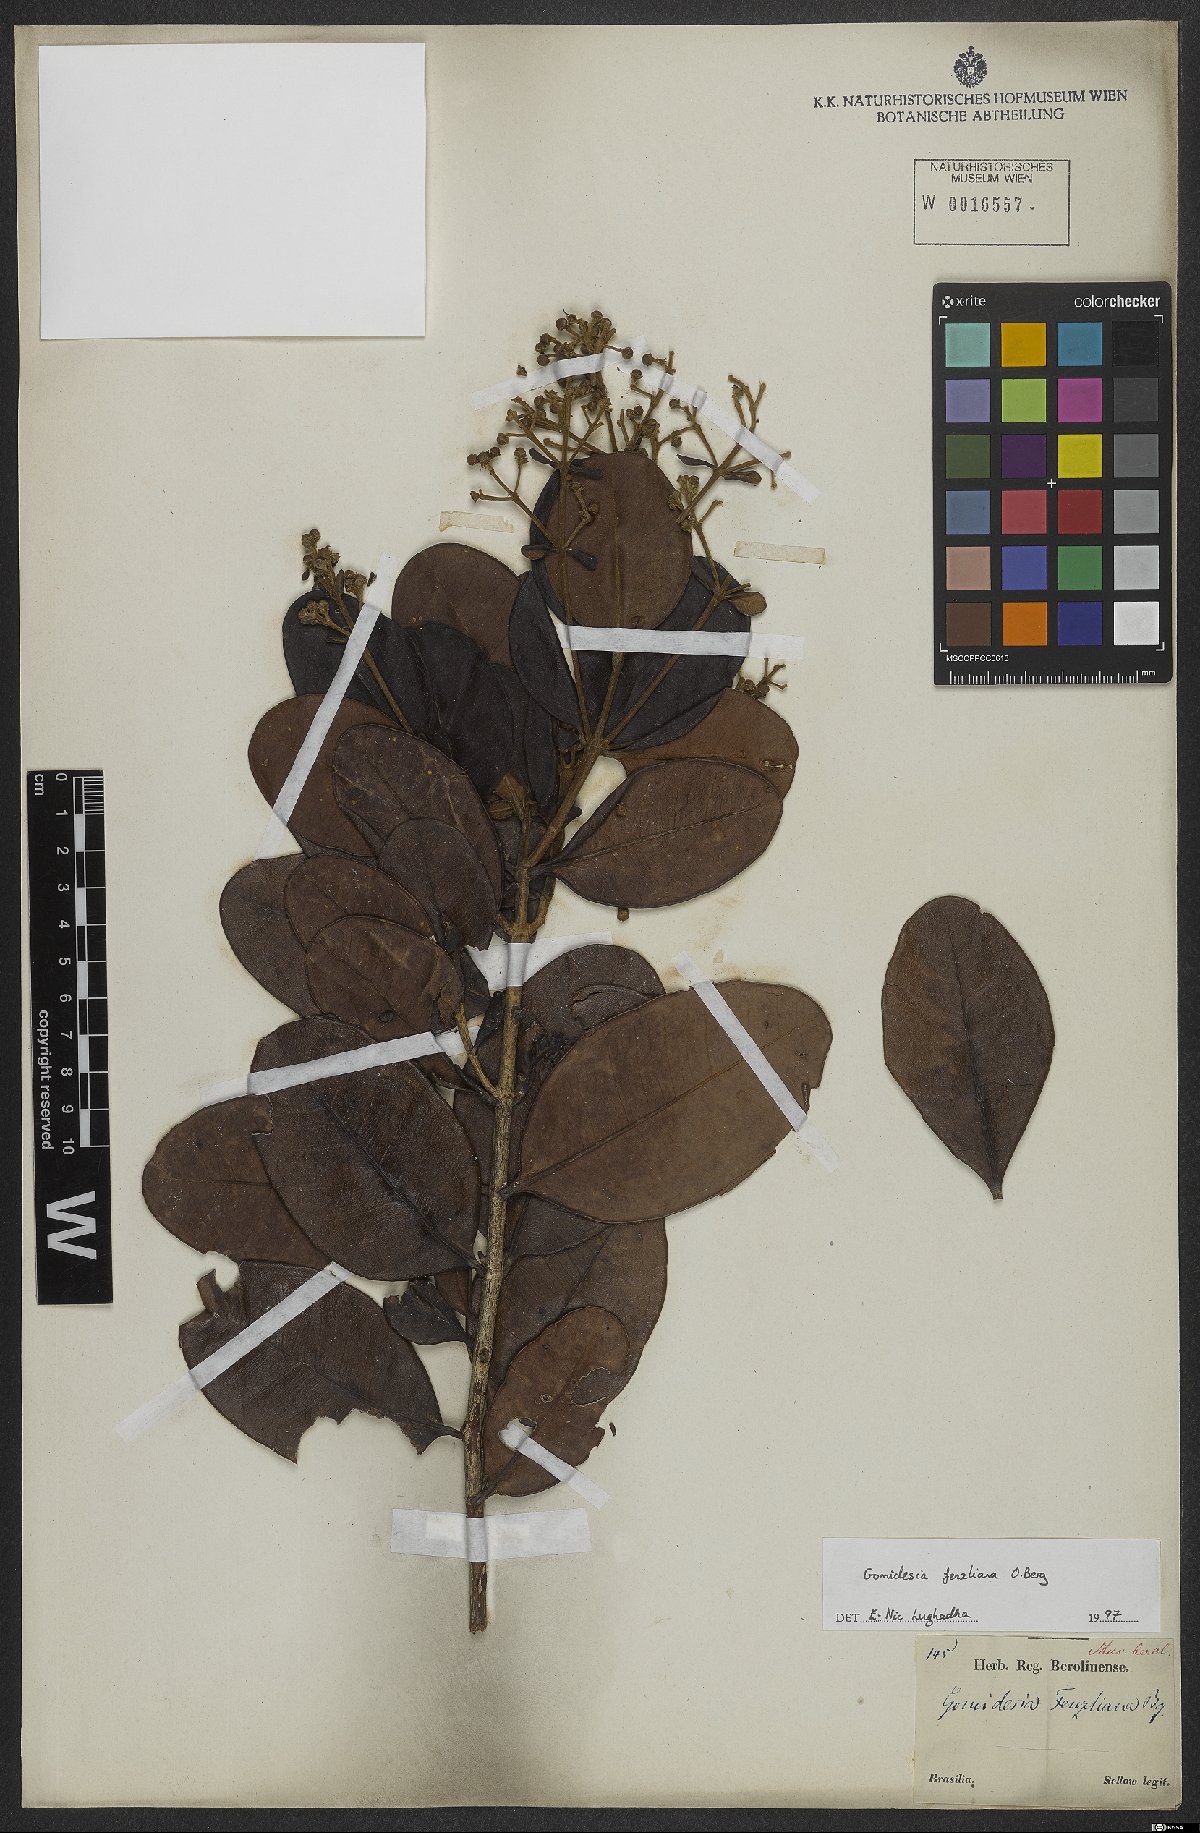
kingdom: Plantae
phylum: Tracheophyta
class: Magnoliopsida
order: Myrtales
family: Myrtaceae
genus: Myrcia
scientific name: Myrcia ilheosensis
